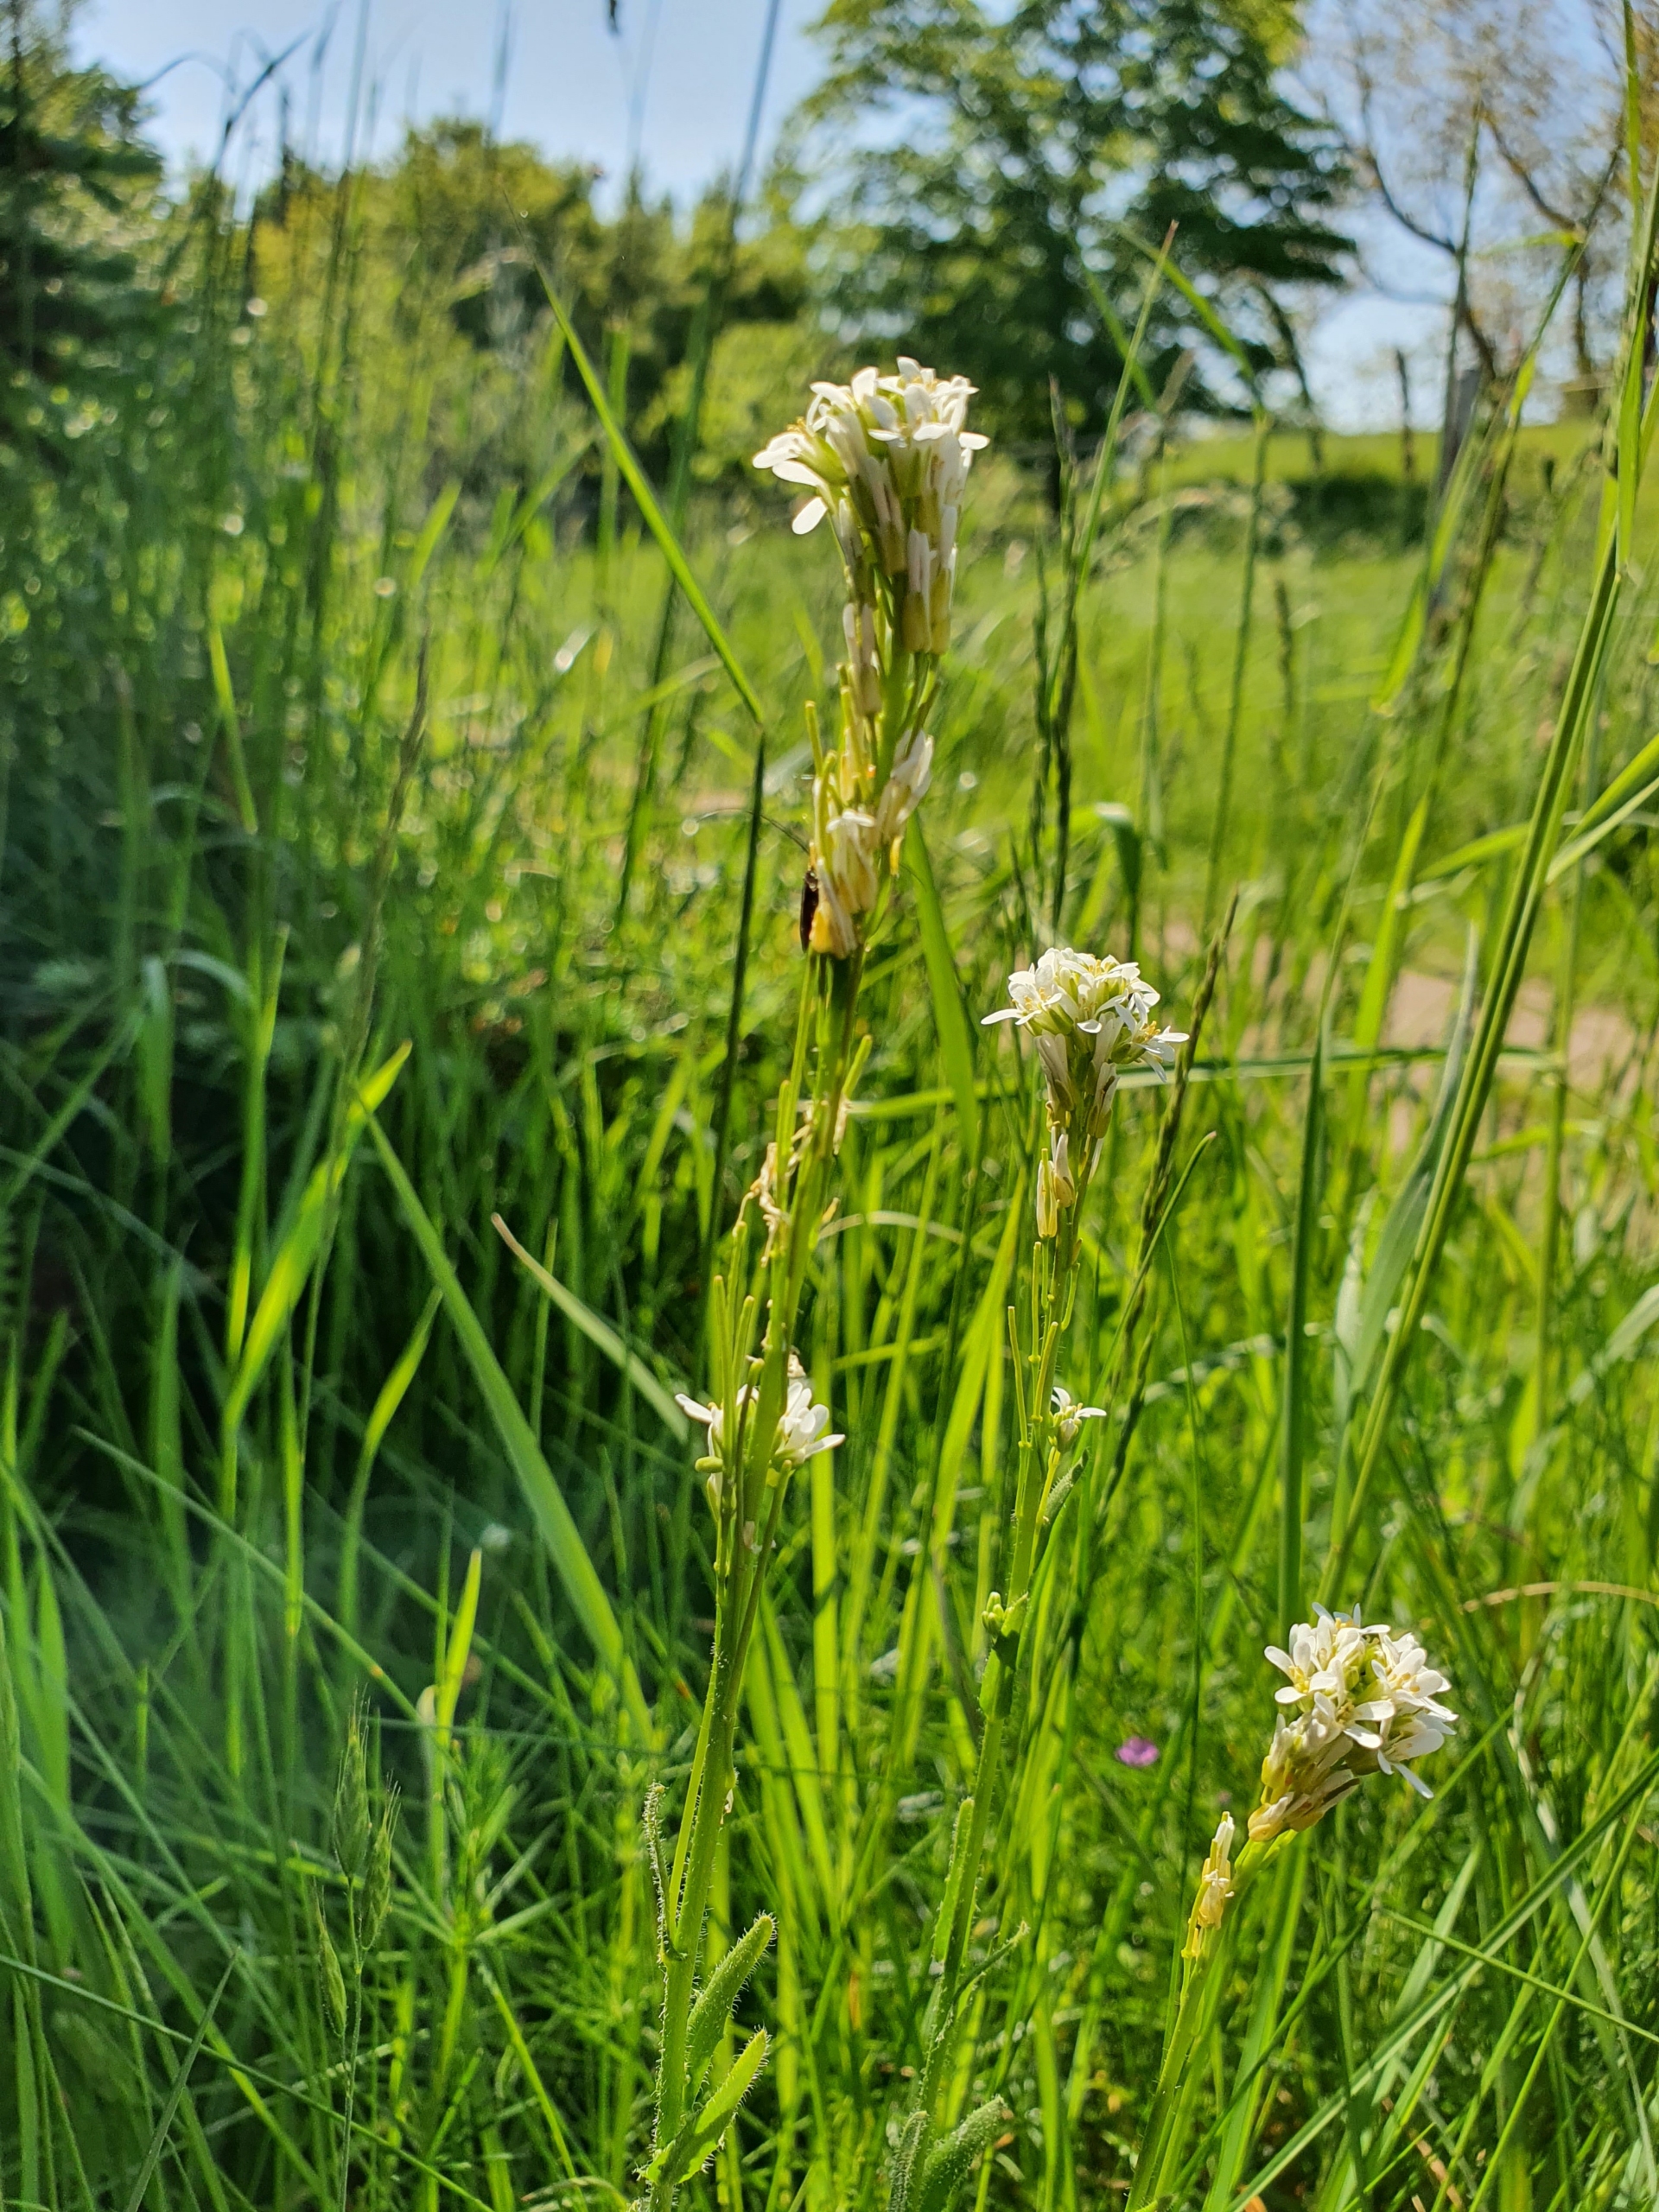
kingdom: Plantae
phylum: Tracheophyta
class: Magnoliopsida
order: Brassicales
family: Brassicaceae
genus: Arabis
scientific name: Arabis hirsuta
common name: Stivhåret kalkkarse
